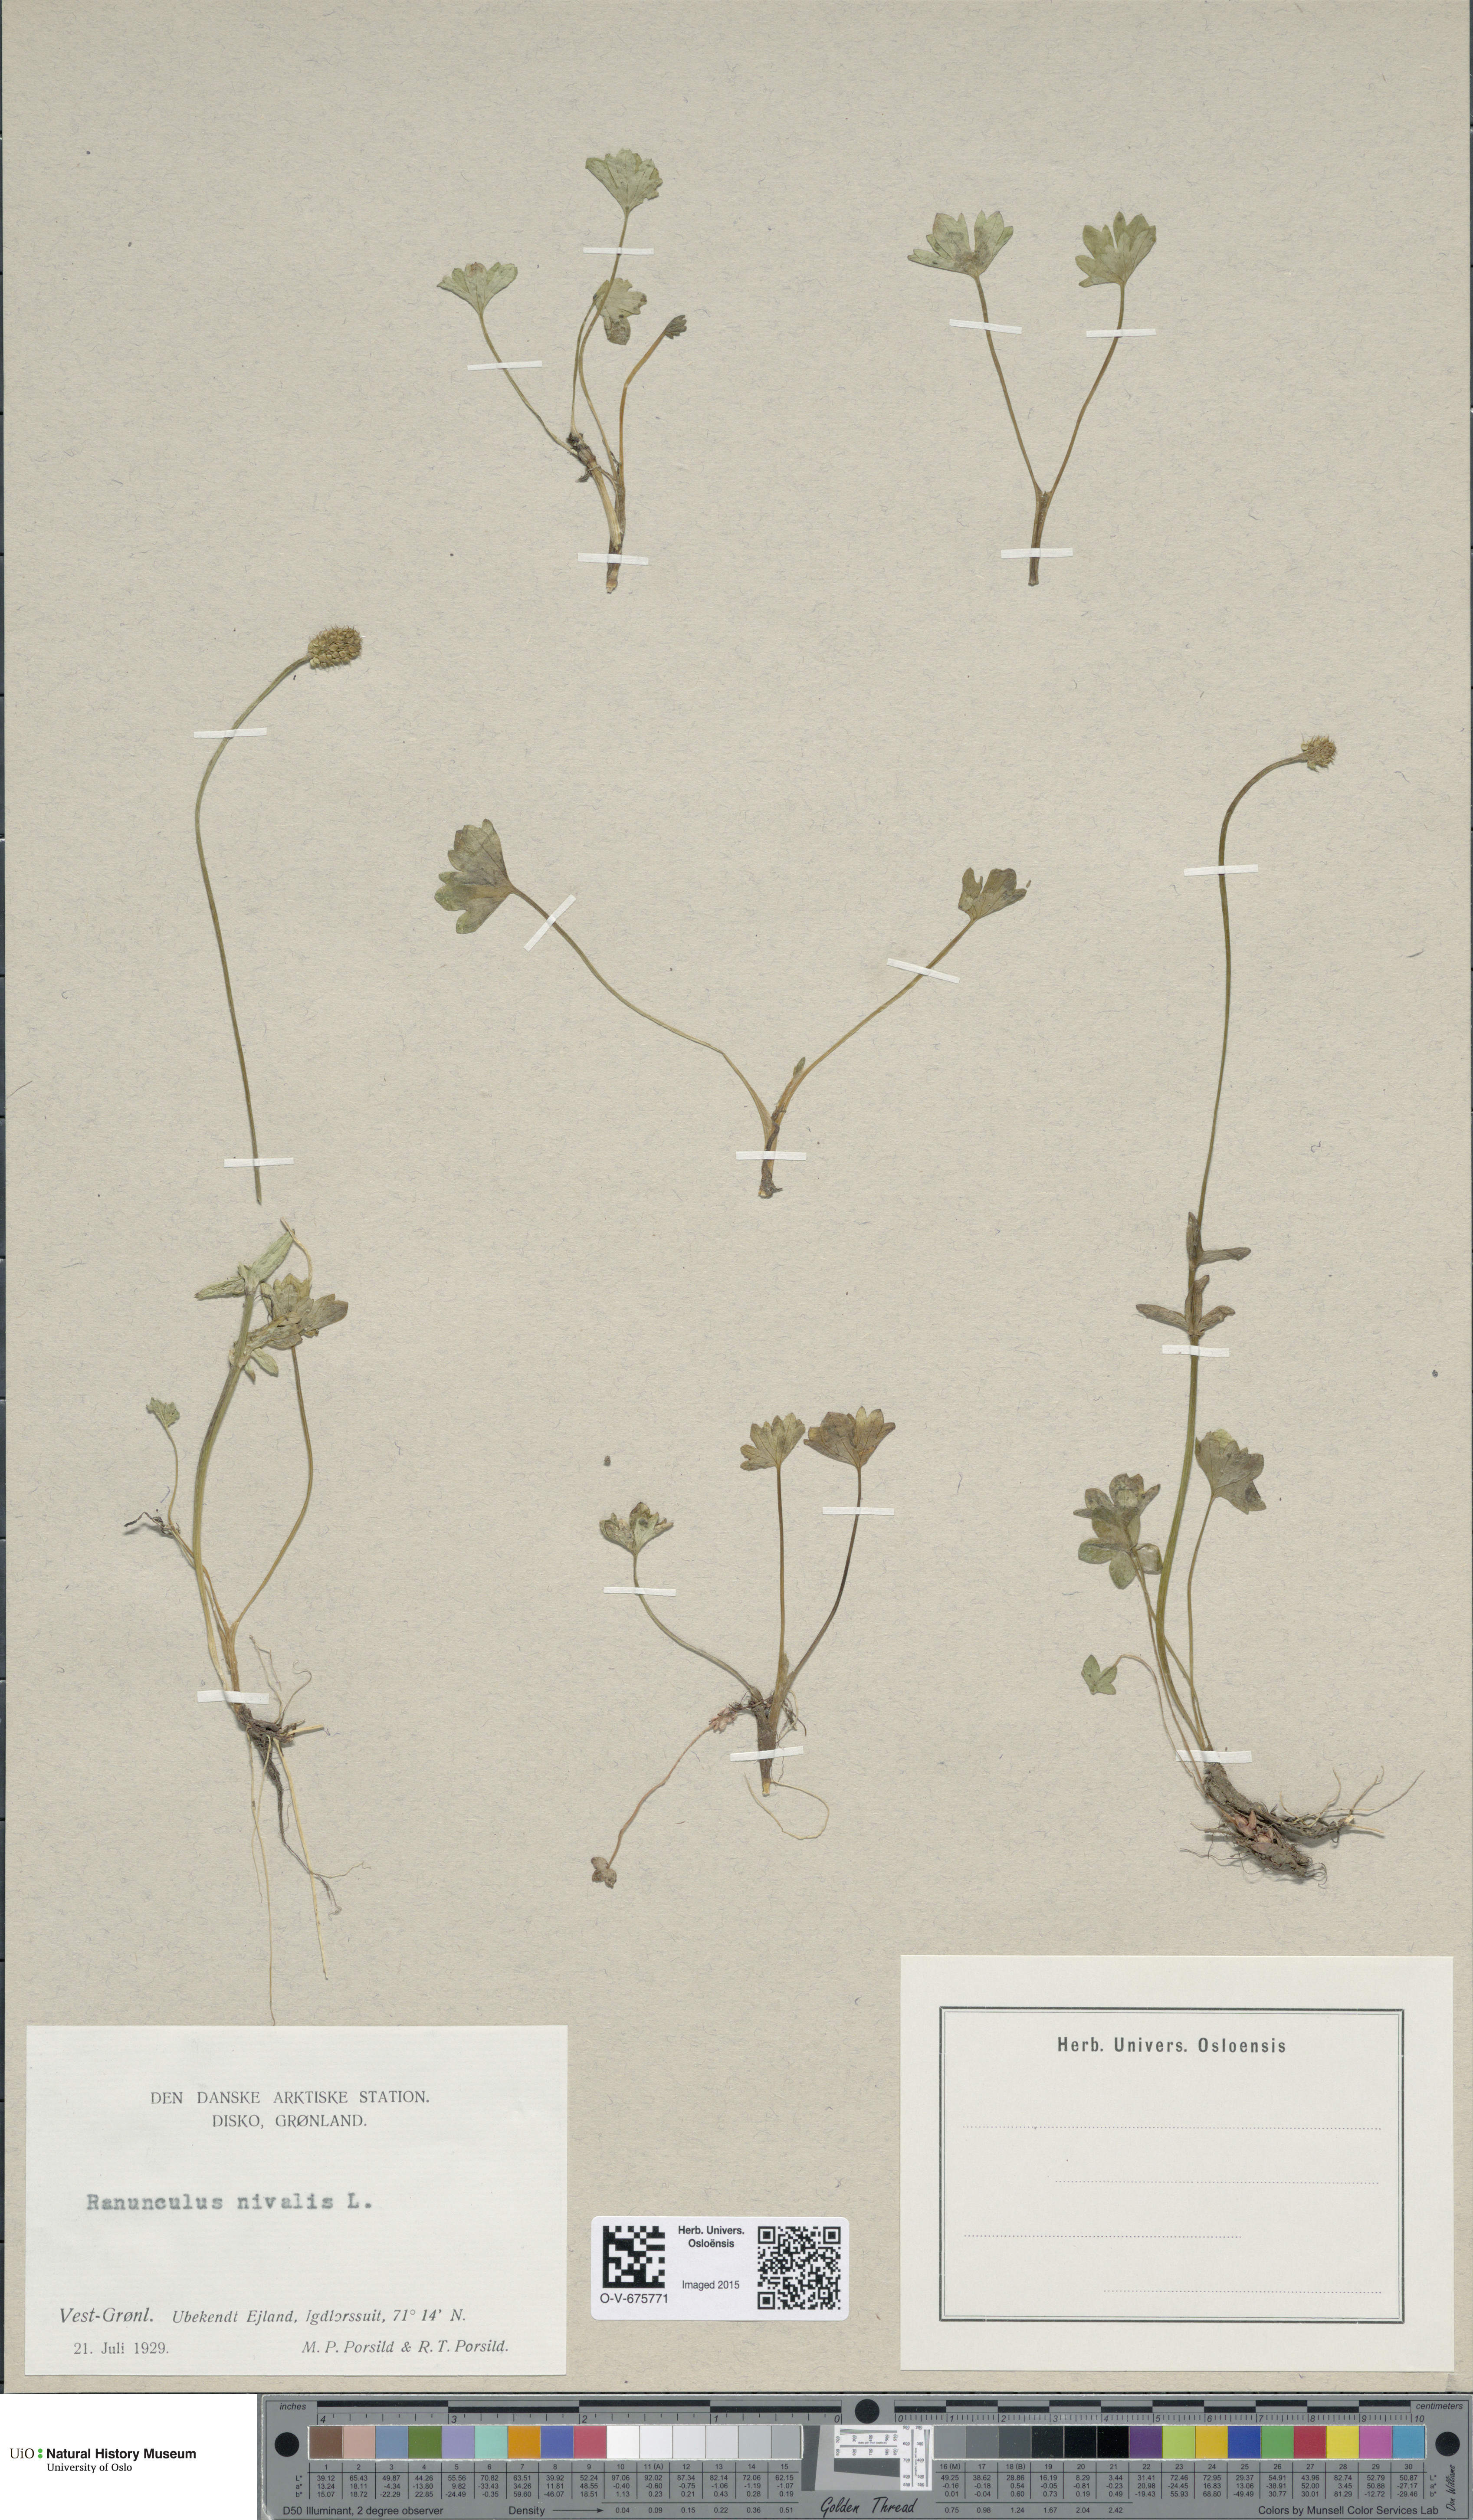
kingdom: Plantae
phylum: Tracheophyta
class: Magnoliopsida
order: Ranunculales
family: Ranunculaceae
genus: Ranunculus
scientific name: Ranunculus nivalis
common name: Snow buttercup
